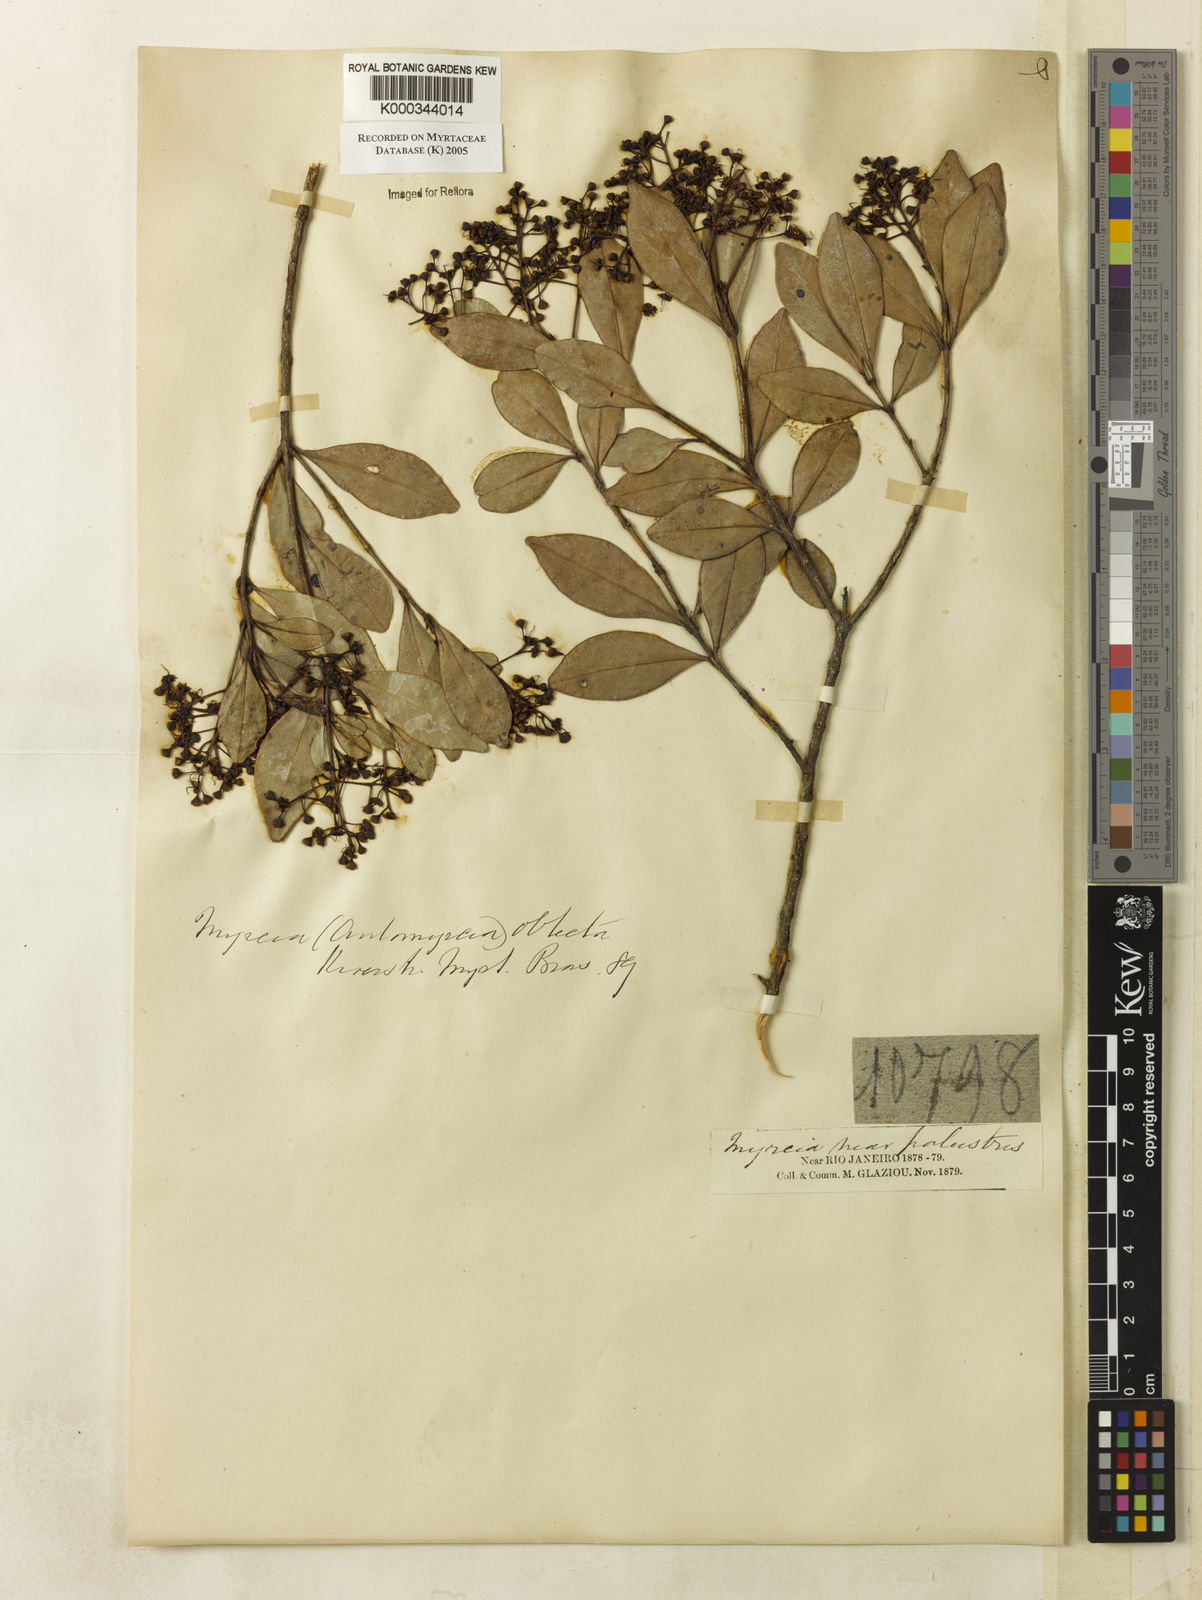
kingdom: Plantae
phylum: Tracheophyta
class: Magnoliopsida
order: Myrtales
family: Myrtaceae
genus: Myrcia
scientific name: Myrcia guianensis
